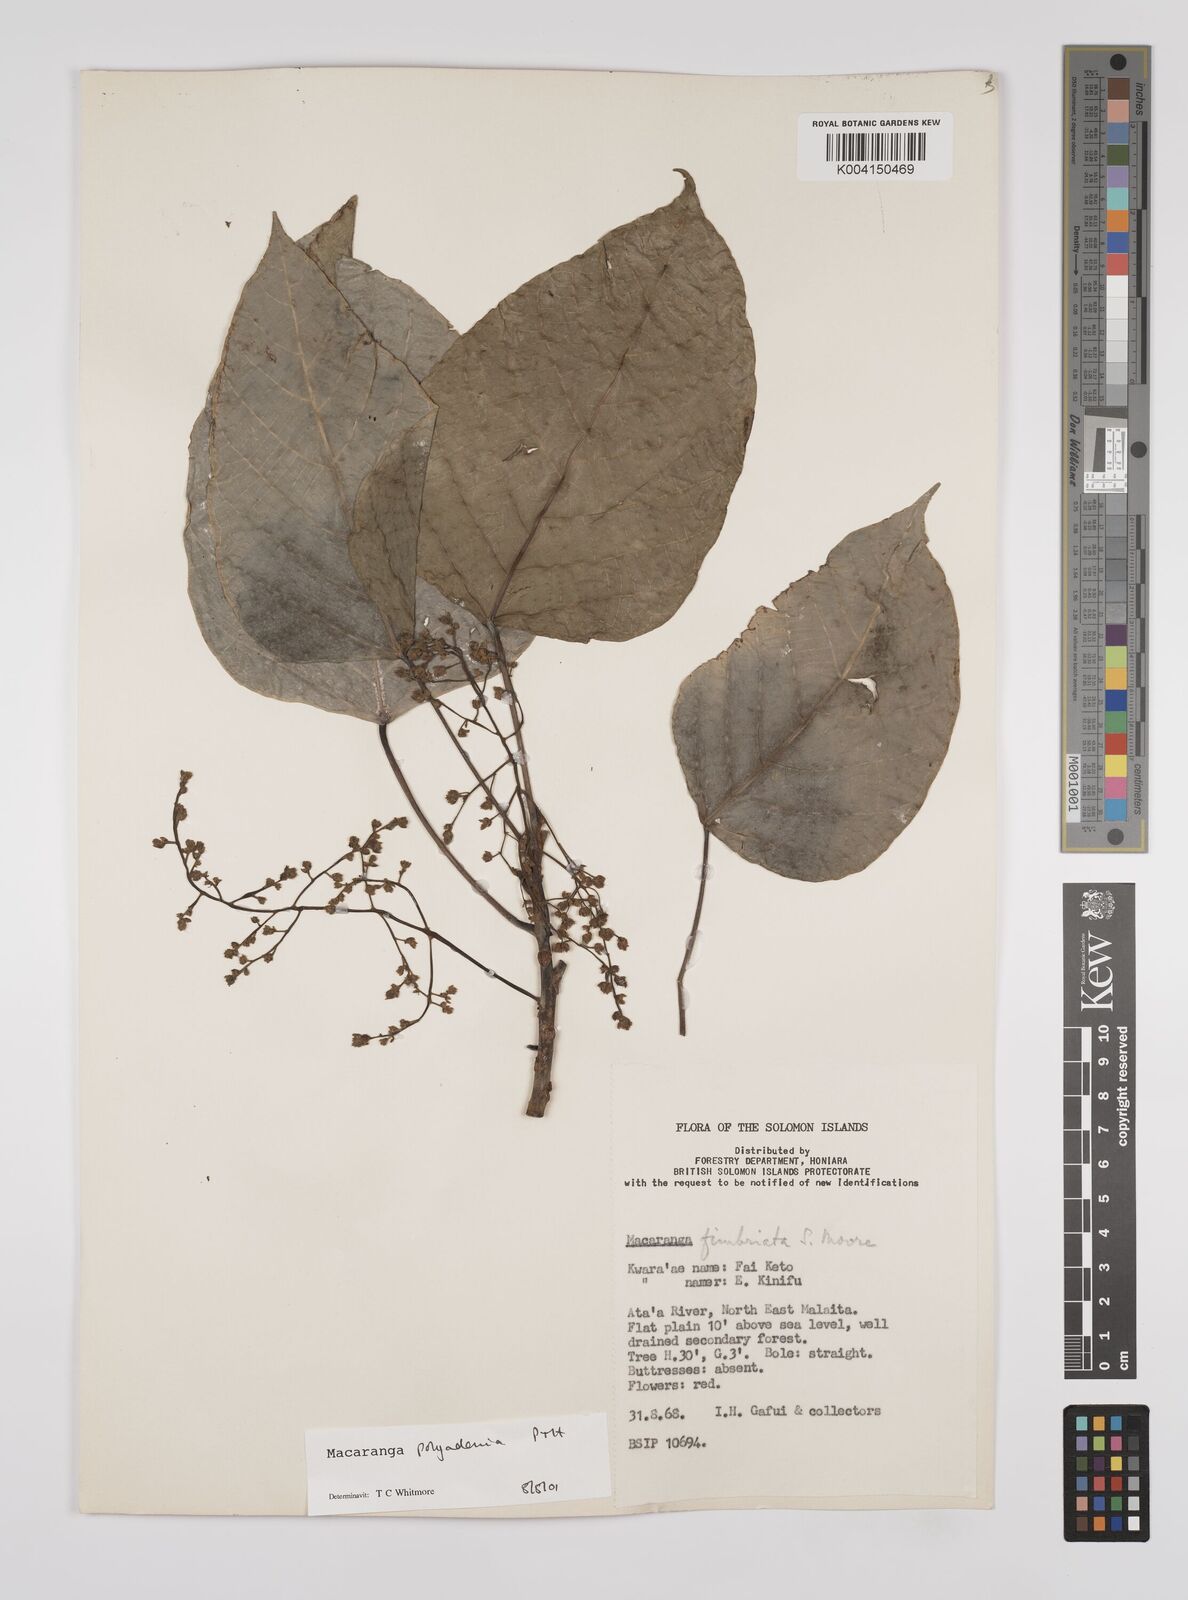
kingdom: Plantae
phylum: Tracheophyta
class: Magnoliopsida
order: Malpighiales
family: Euphorbiaceae
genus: Macaranga
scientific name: Macaranga polyadenia
